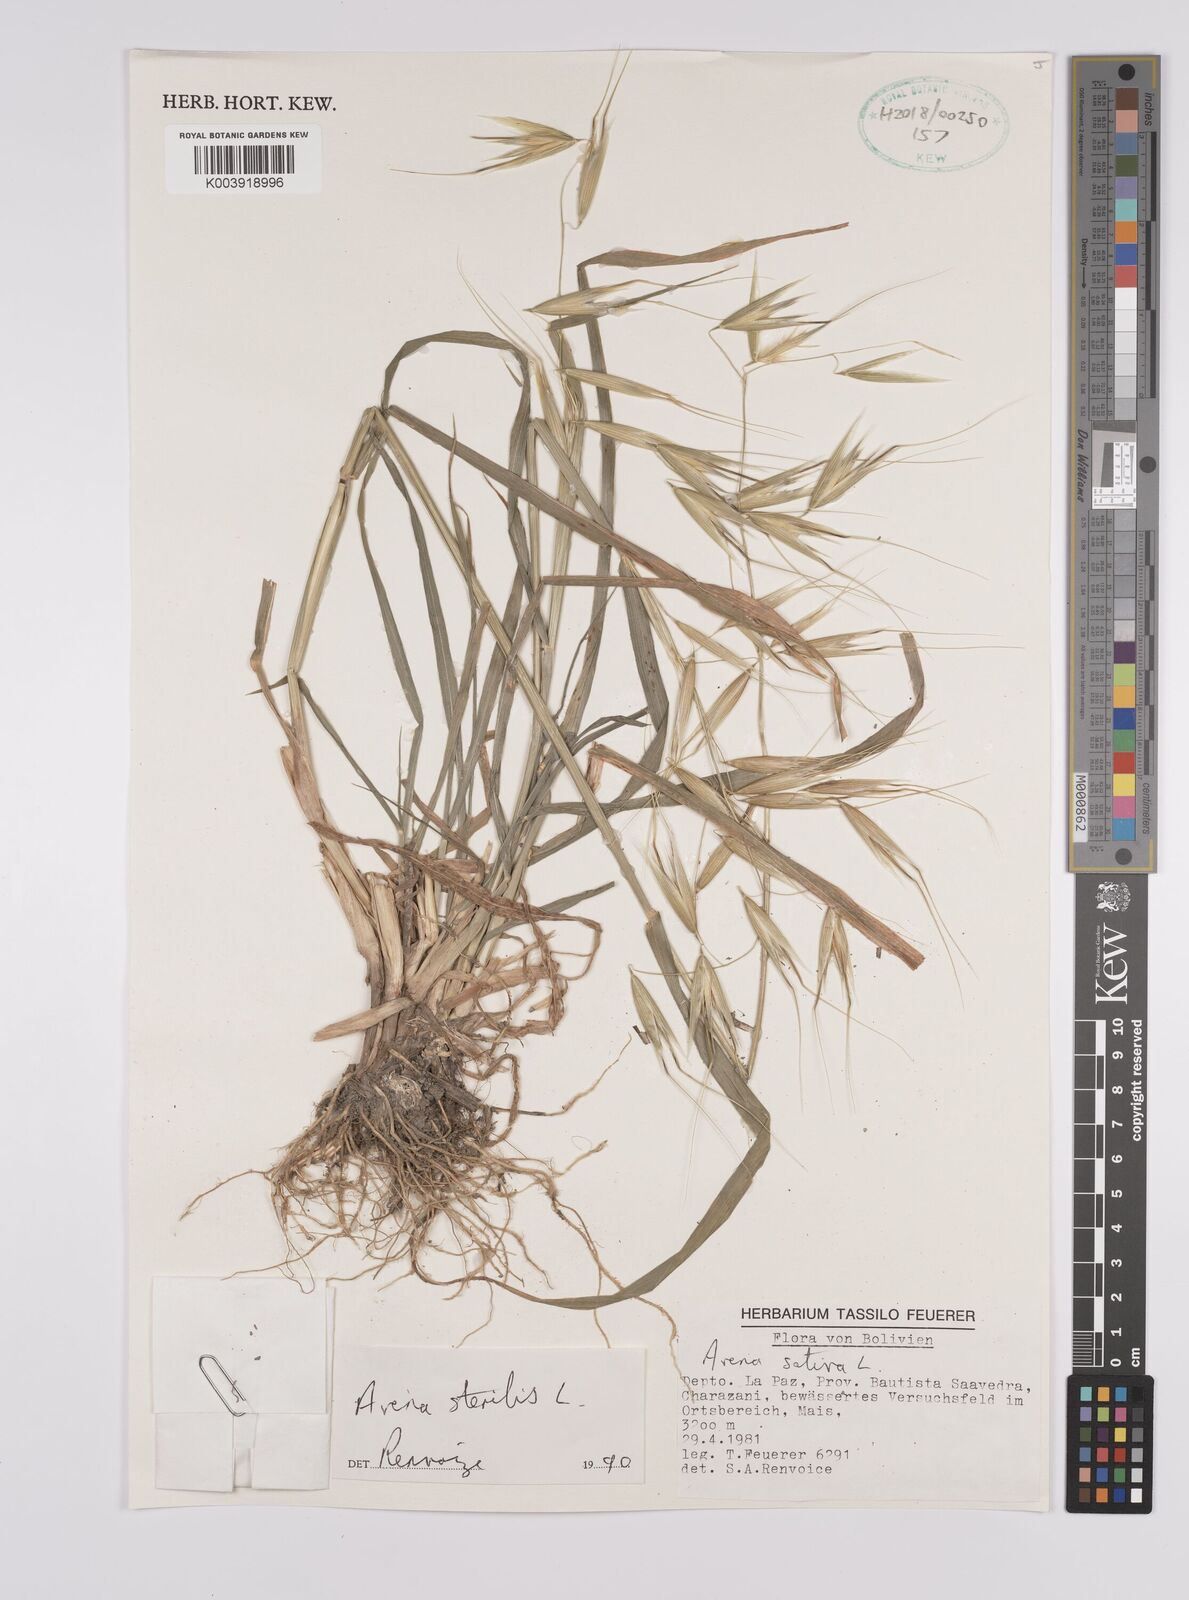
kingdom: Plantae
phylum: Tracheophyta
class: Liliopsida
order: Poales
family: Poaceae
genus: Avena
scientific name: Avena sterilis
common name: Animated oat
